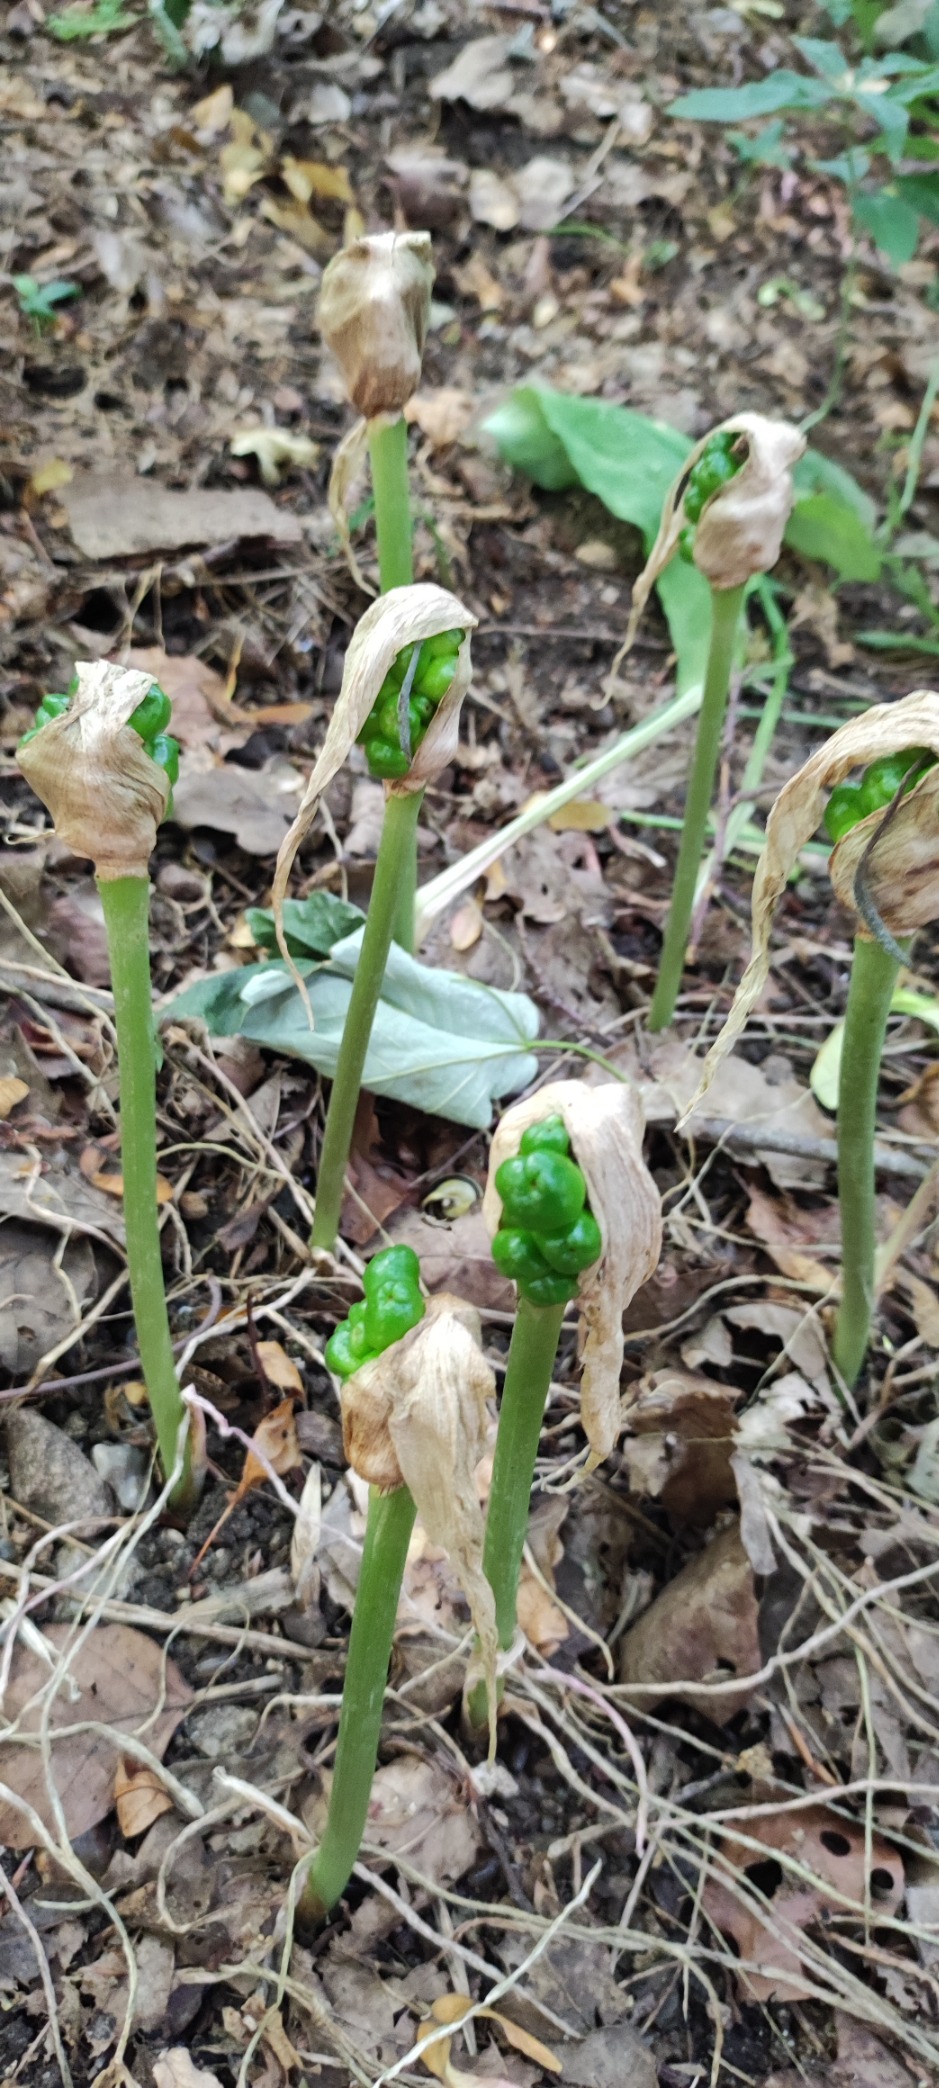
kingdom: Plantae
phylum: Tracheophyta
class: Liliopsida
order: Alismatales
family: Araceae
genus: Arum
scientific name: Arum
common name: Arumslægten
